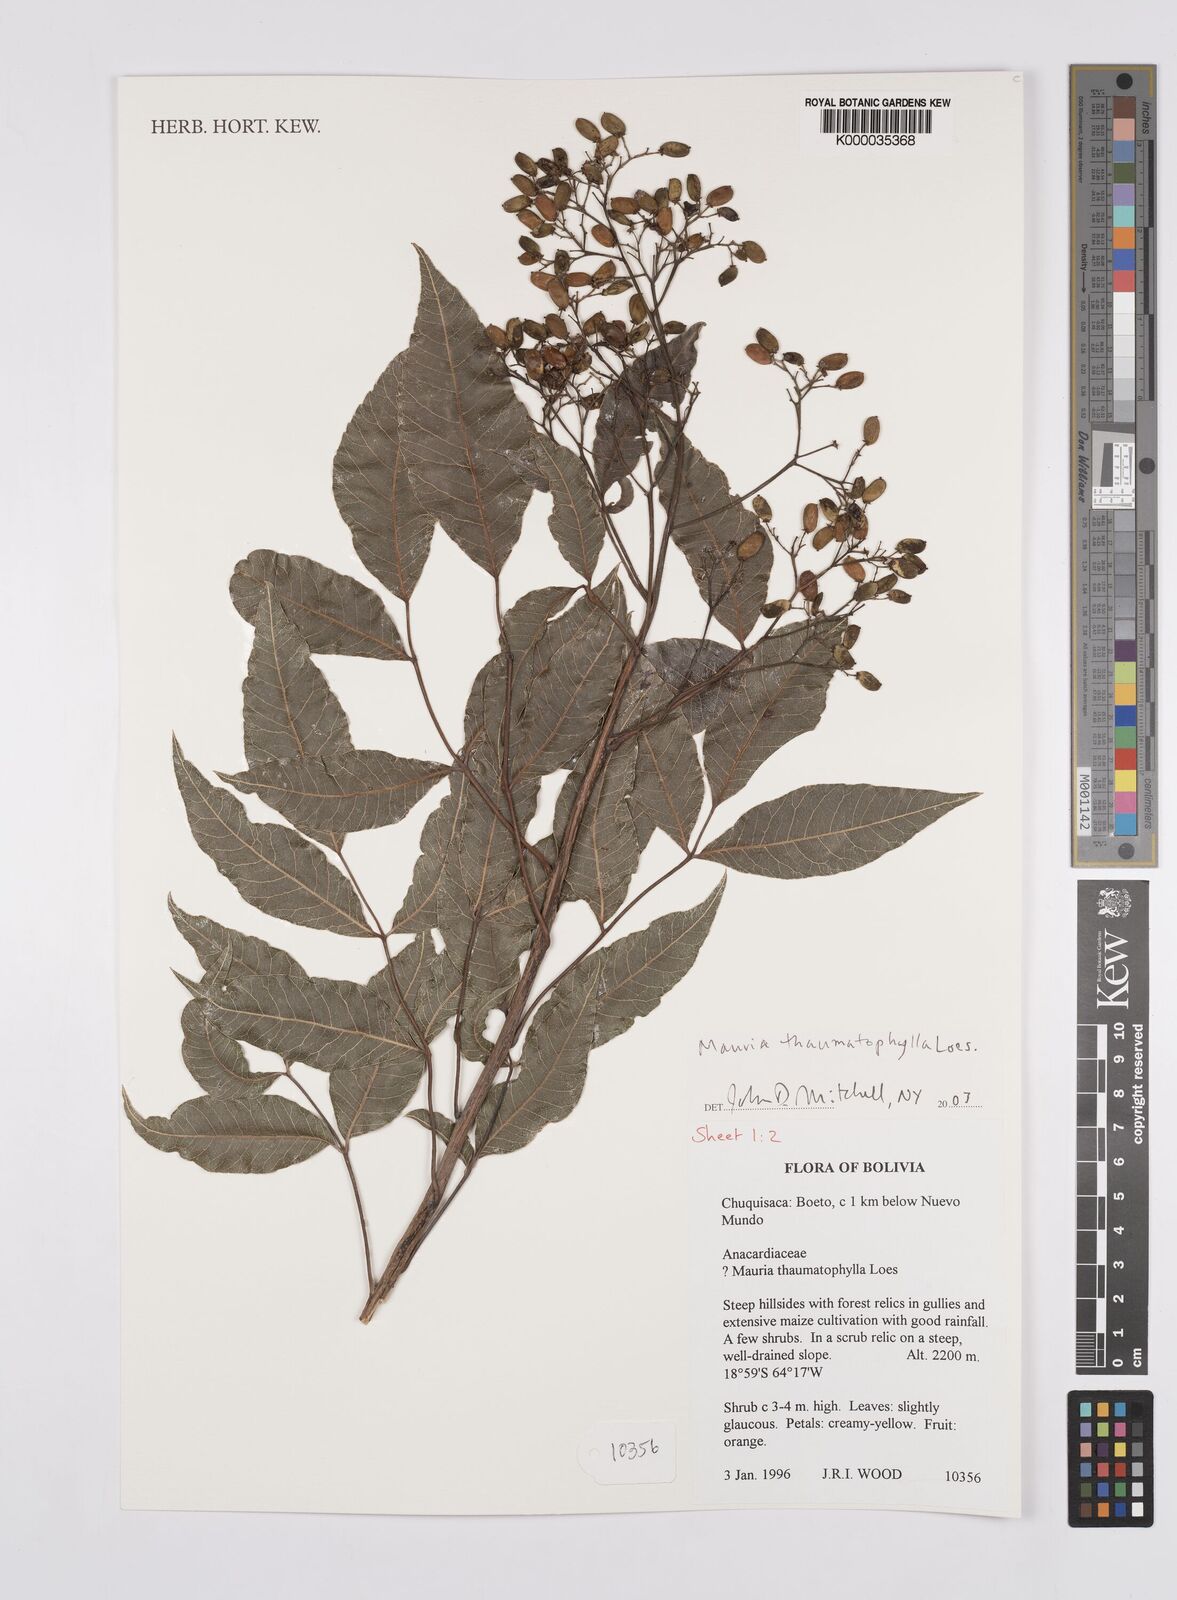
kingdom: Plantae
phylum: Tracheophyta
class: Magnoliopsida
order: Sapindales
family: Anacardiaceae
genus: Mauria
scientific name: Mauria thaumatophylla
